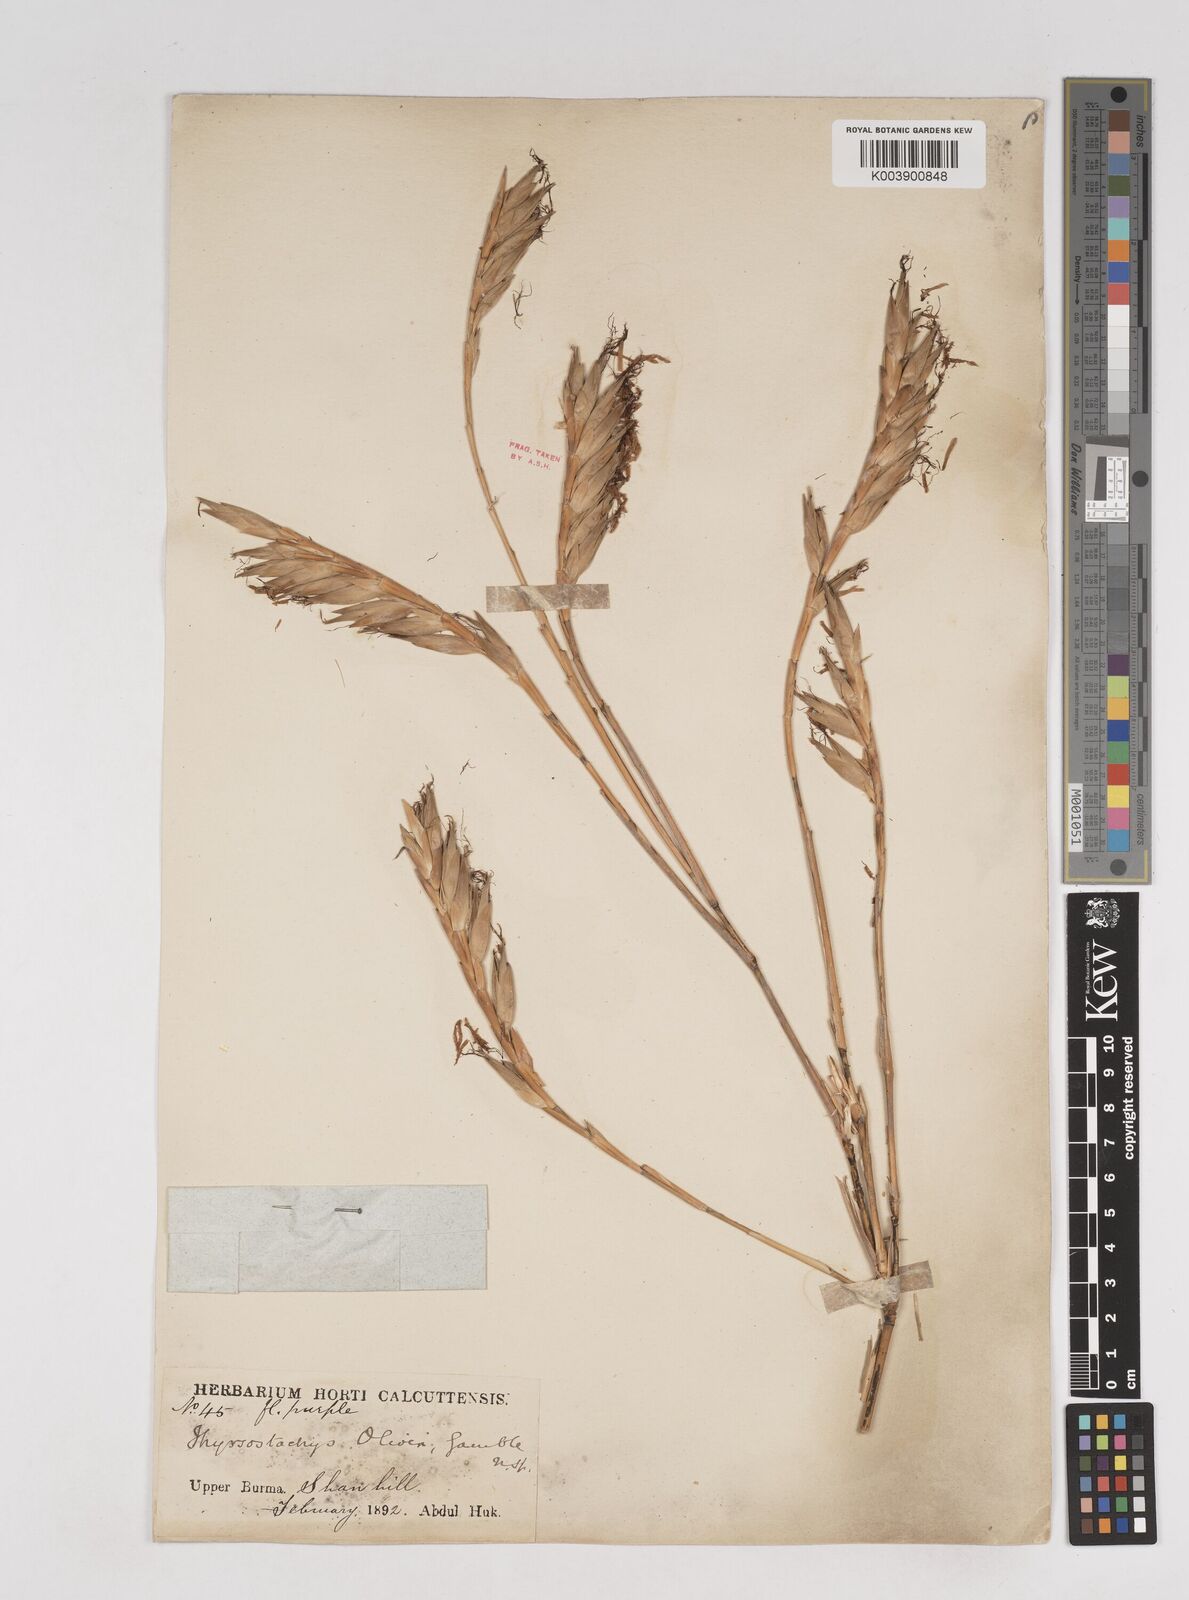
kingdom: Plantae
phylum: Tracheophyta
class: Liliopsida
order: Poales
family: Poaceae
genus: Thyrsostachys
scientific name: Thyrsostachys oliveri
